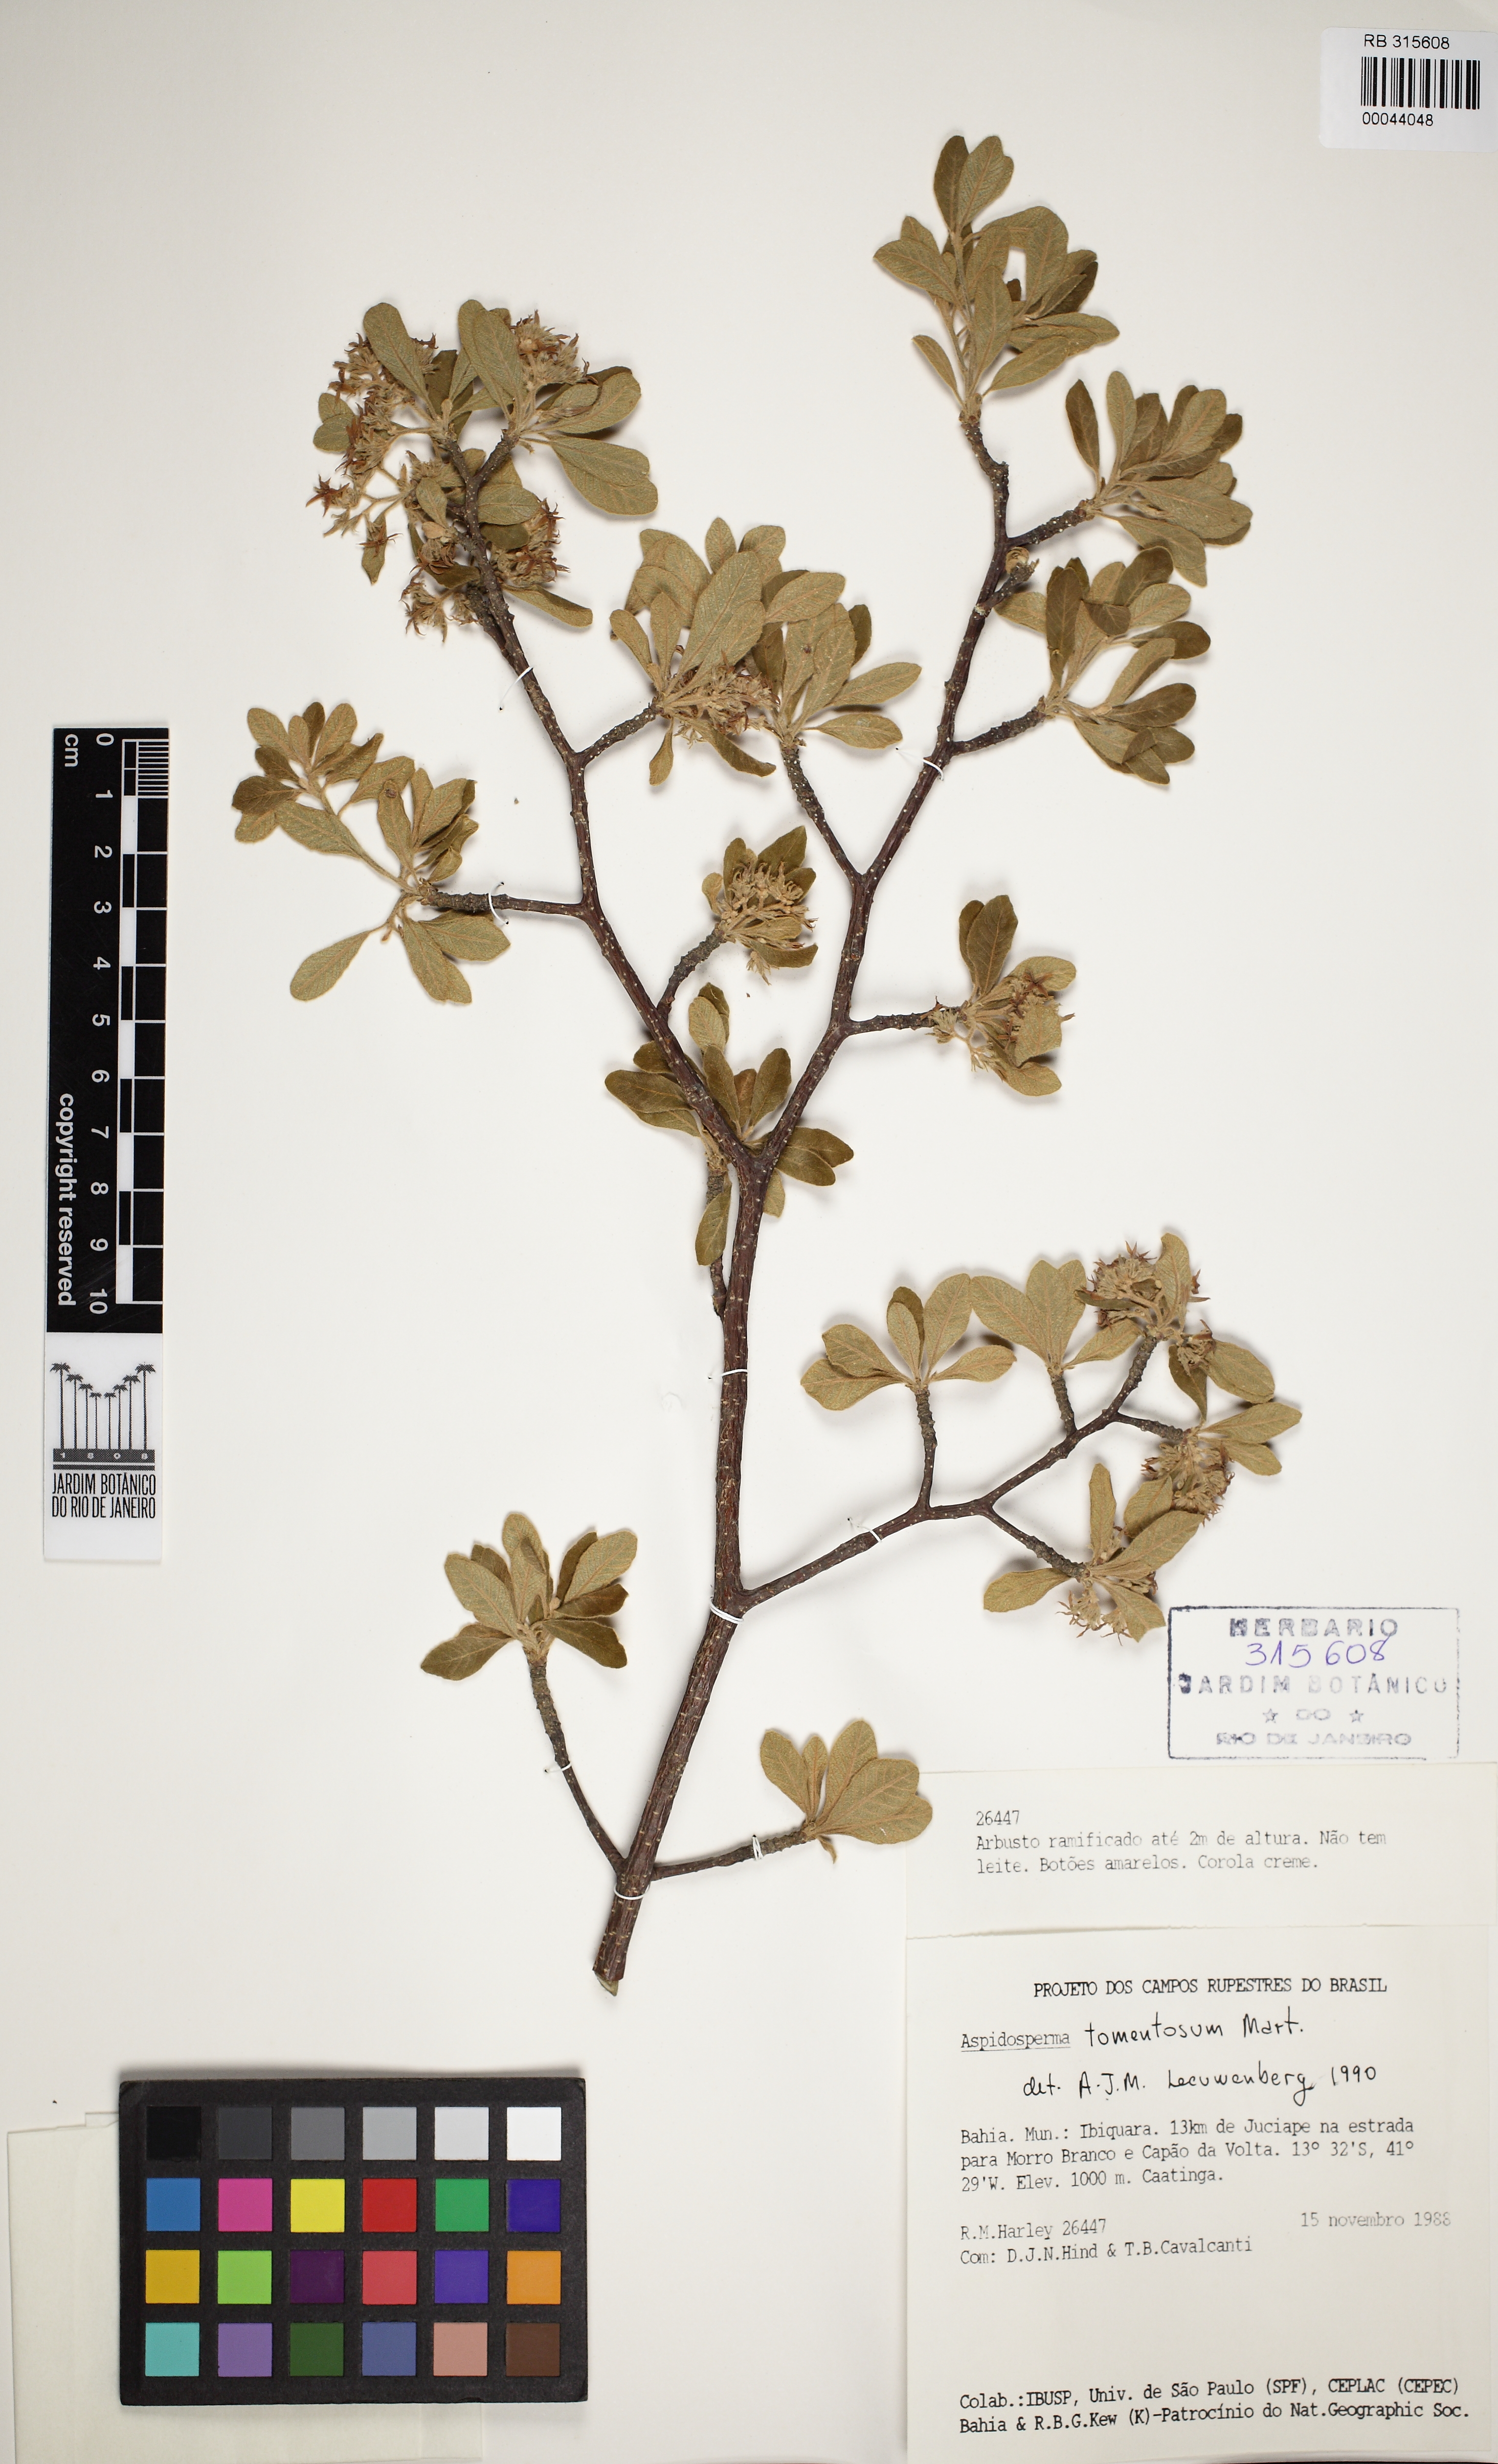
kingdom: Plantae
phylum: Tracheophyta
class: Magnoliopsida
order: Gentianales
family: Apocynaceae
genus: Aspidosperma
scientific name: Aspidosperma
